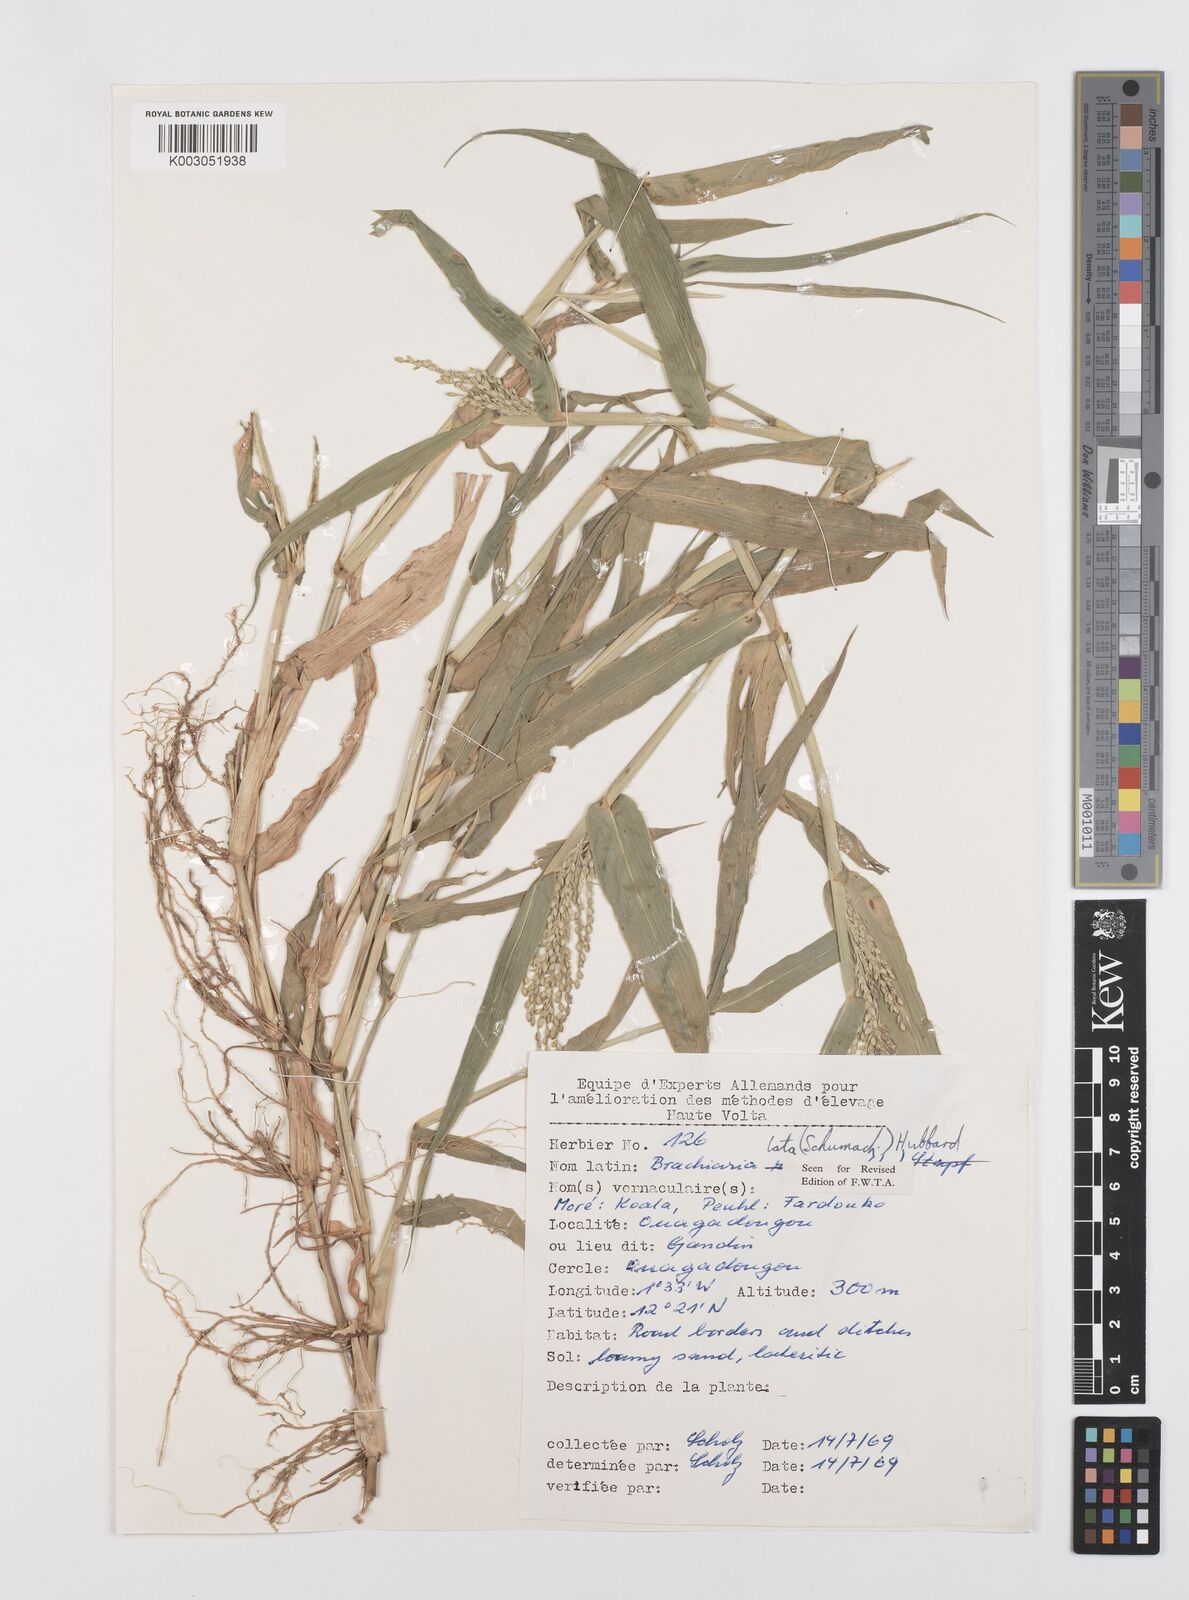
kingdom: Plantae
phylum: Tracheophyta
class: Liliopsida
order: Poales
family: Poaceae
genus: Urochloa
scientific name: Urochloa lata
